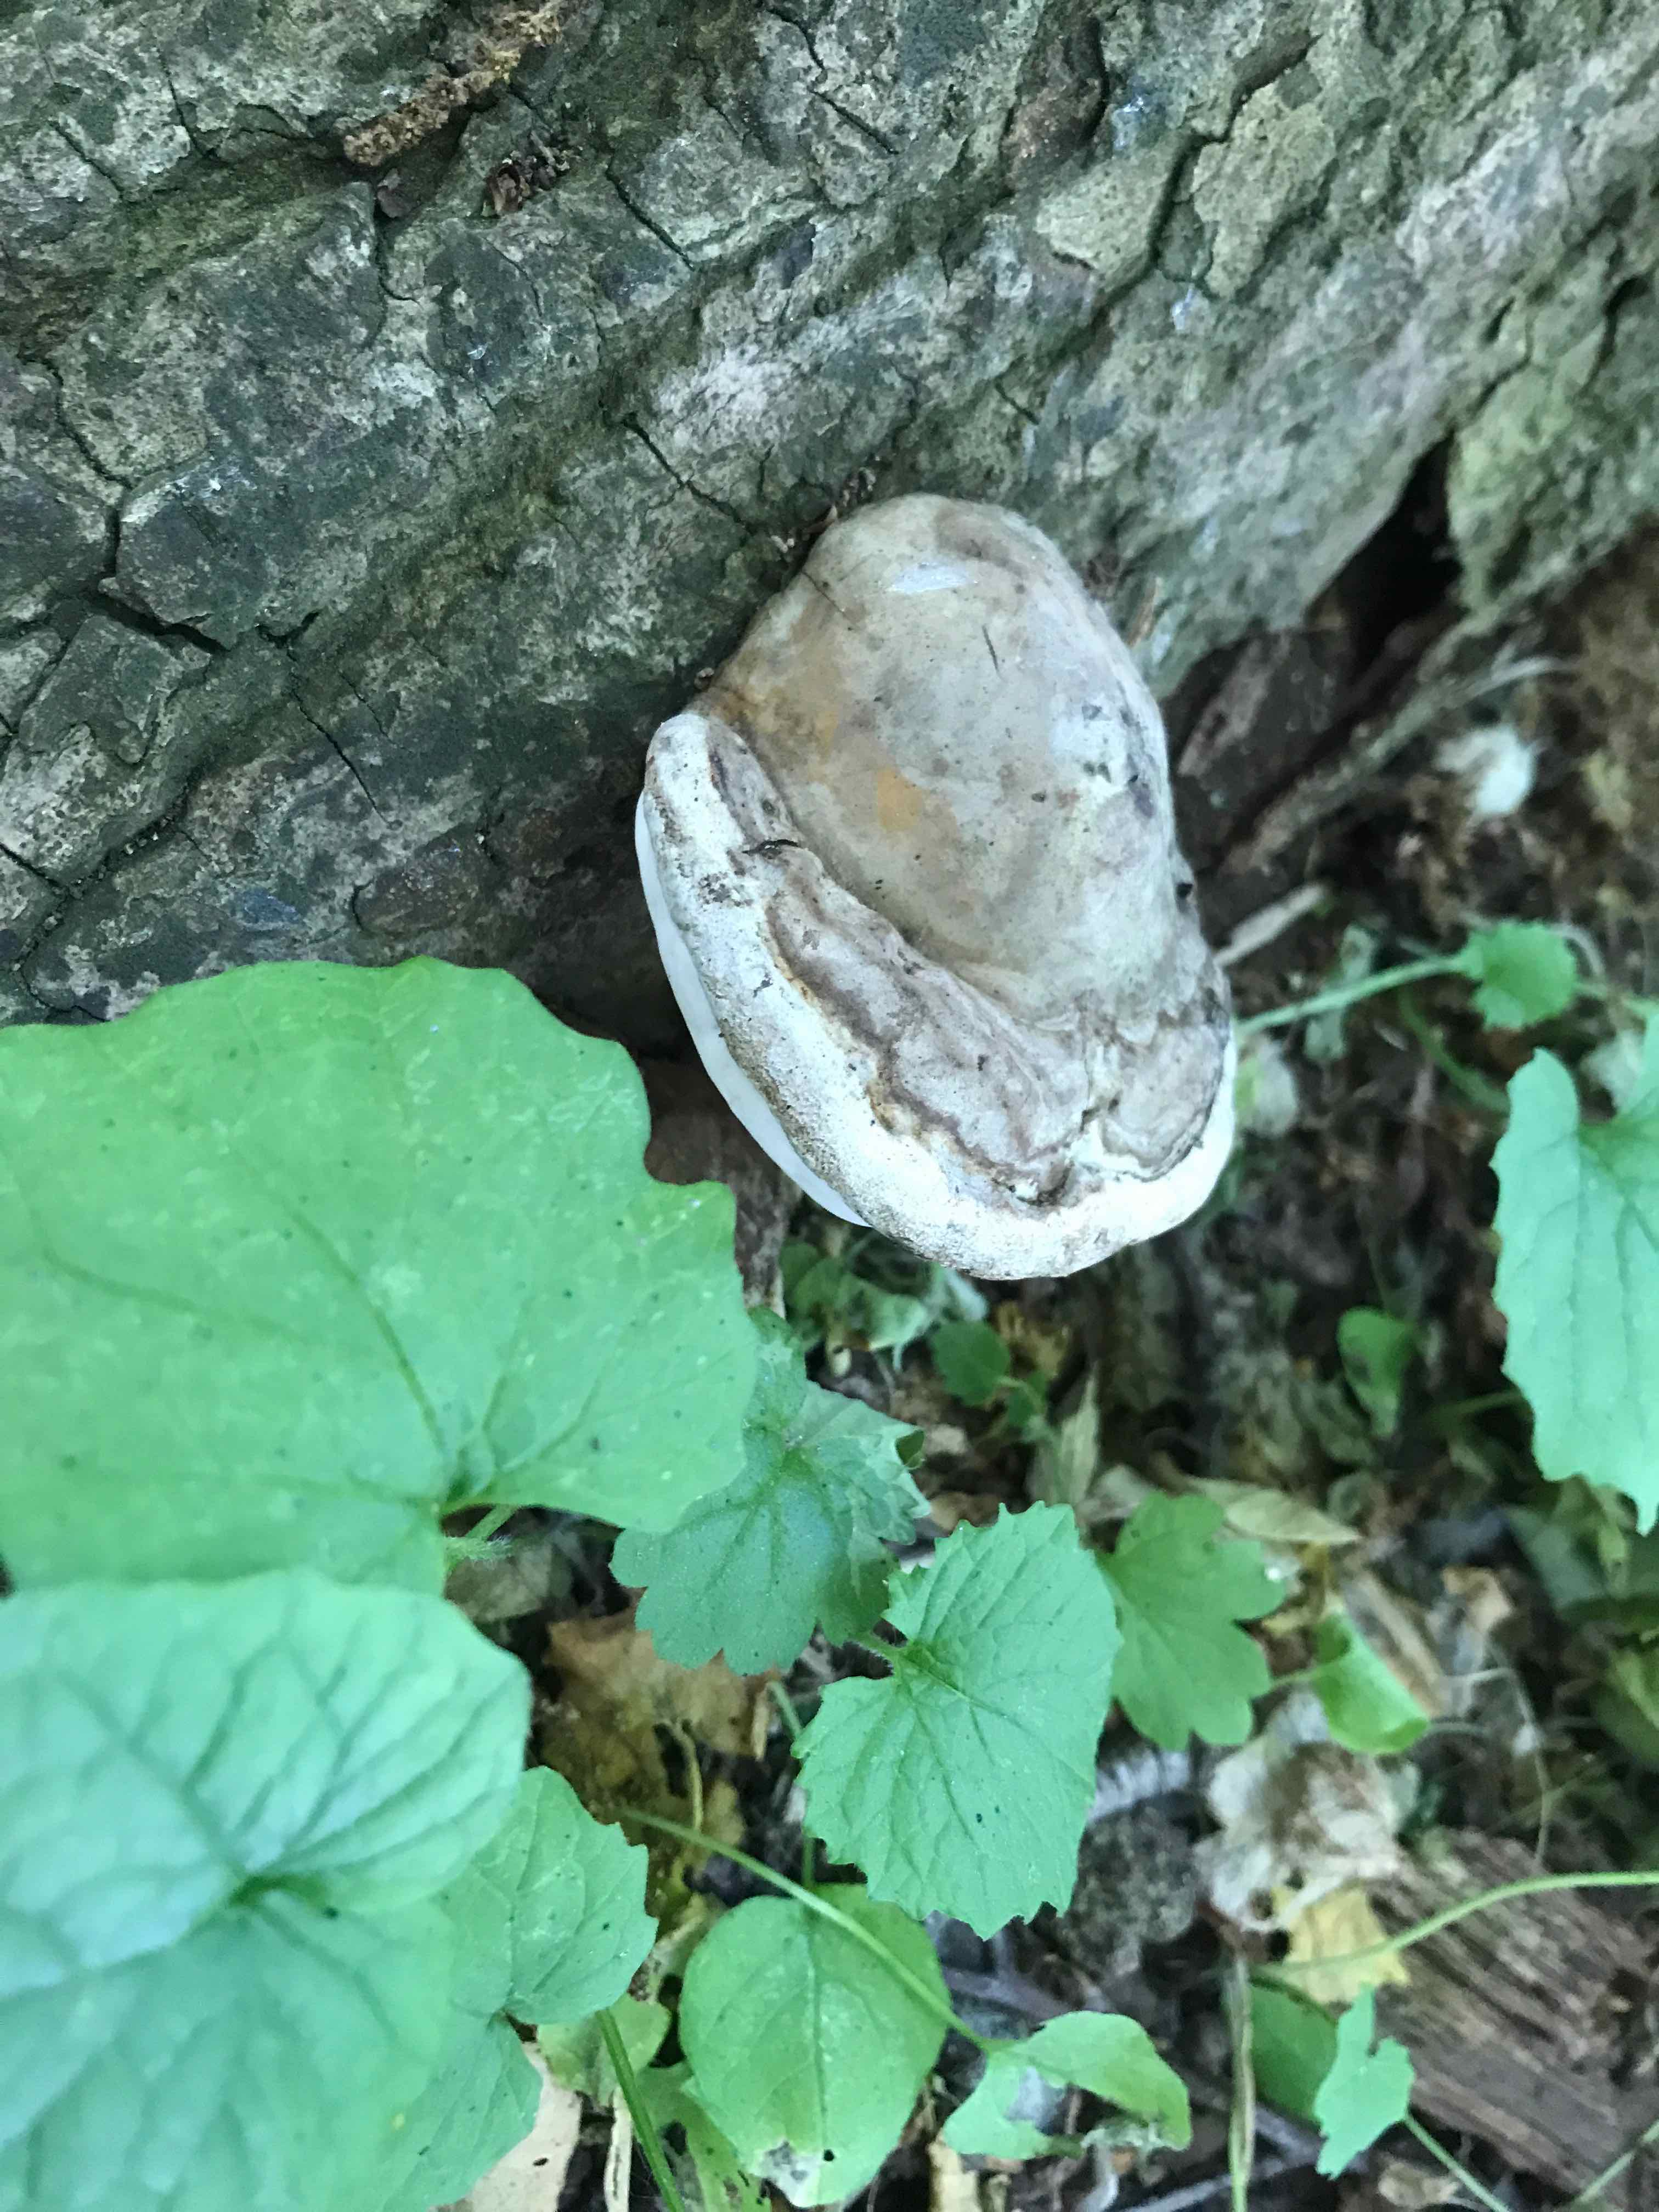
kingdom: Fungi
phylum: Basidiomycota
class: Agaricomycetes
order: Polyporales
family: Polyporaceae
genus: Ganoderma
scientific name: Ganoderma applanatum
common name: flad lakporesvamp
